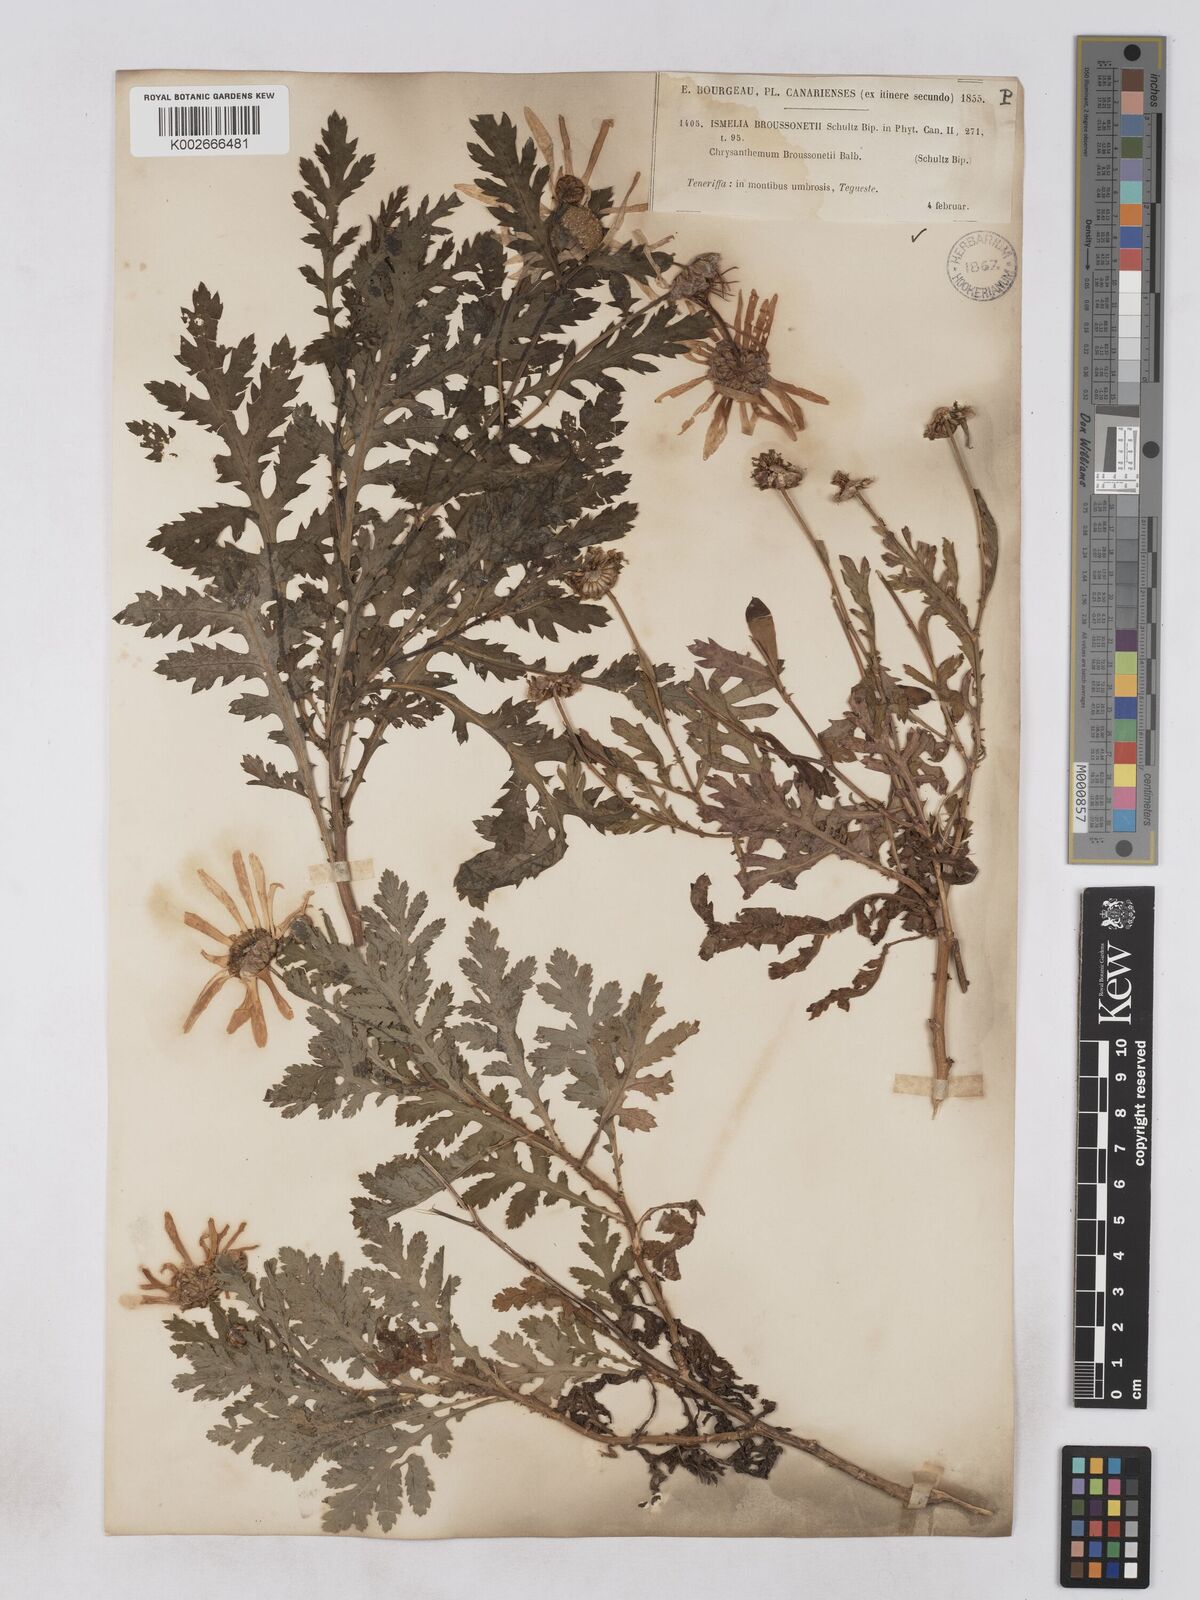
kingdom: Plantae
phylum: Tracheophyta
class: Magnoliopsida
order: Asterales
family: Asteraceae
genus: Argyranthemum
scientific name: Argyranthemum broussonetii
